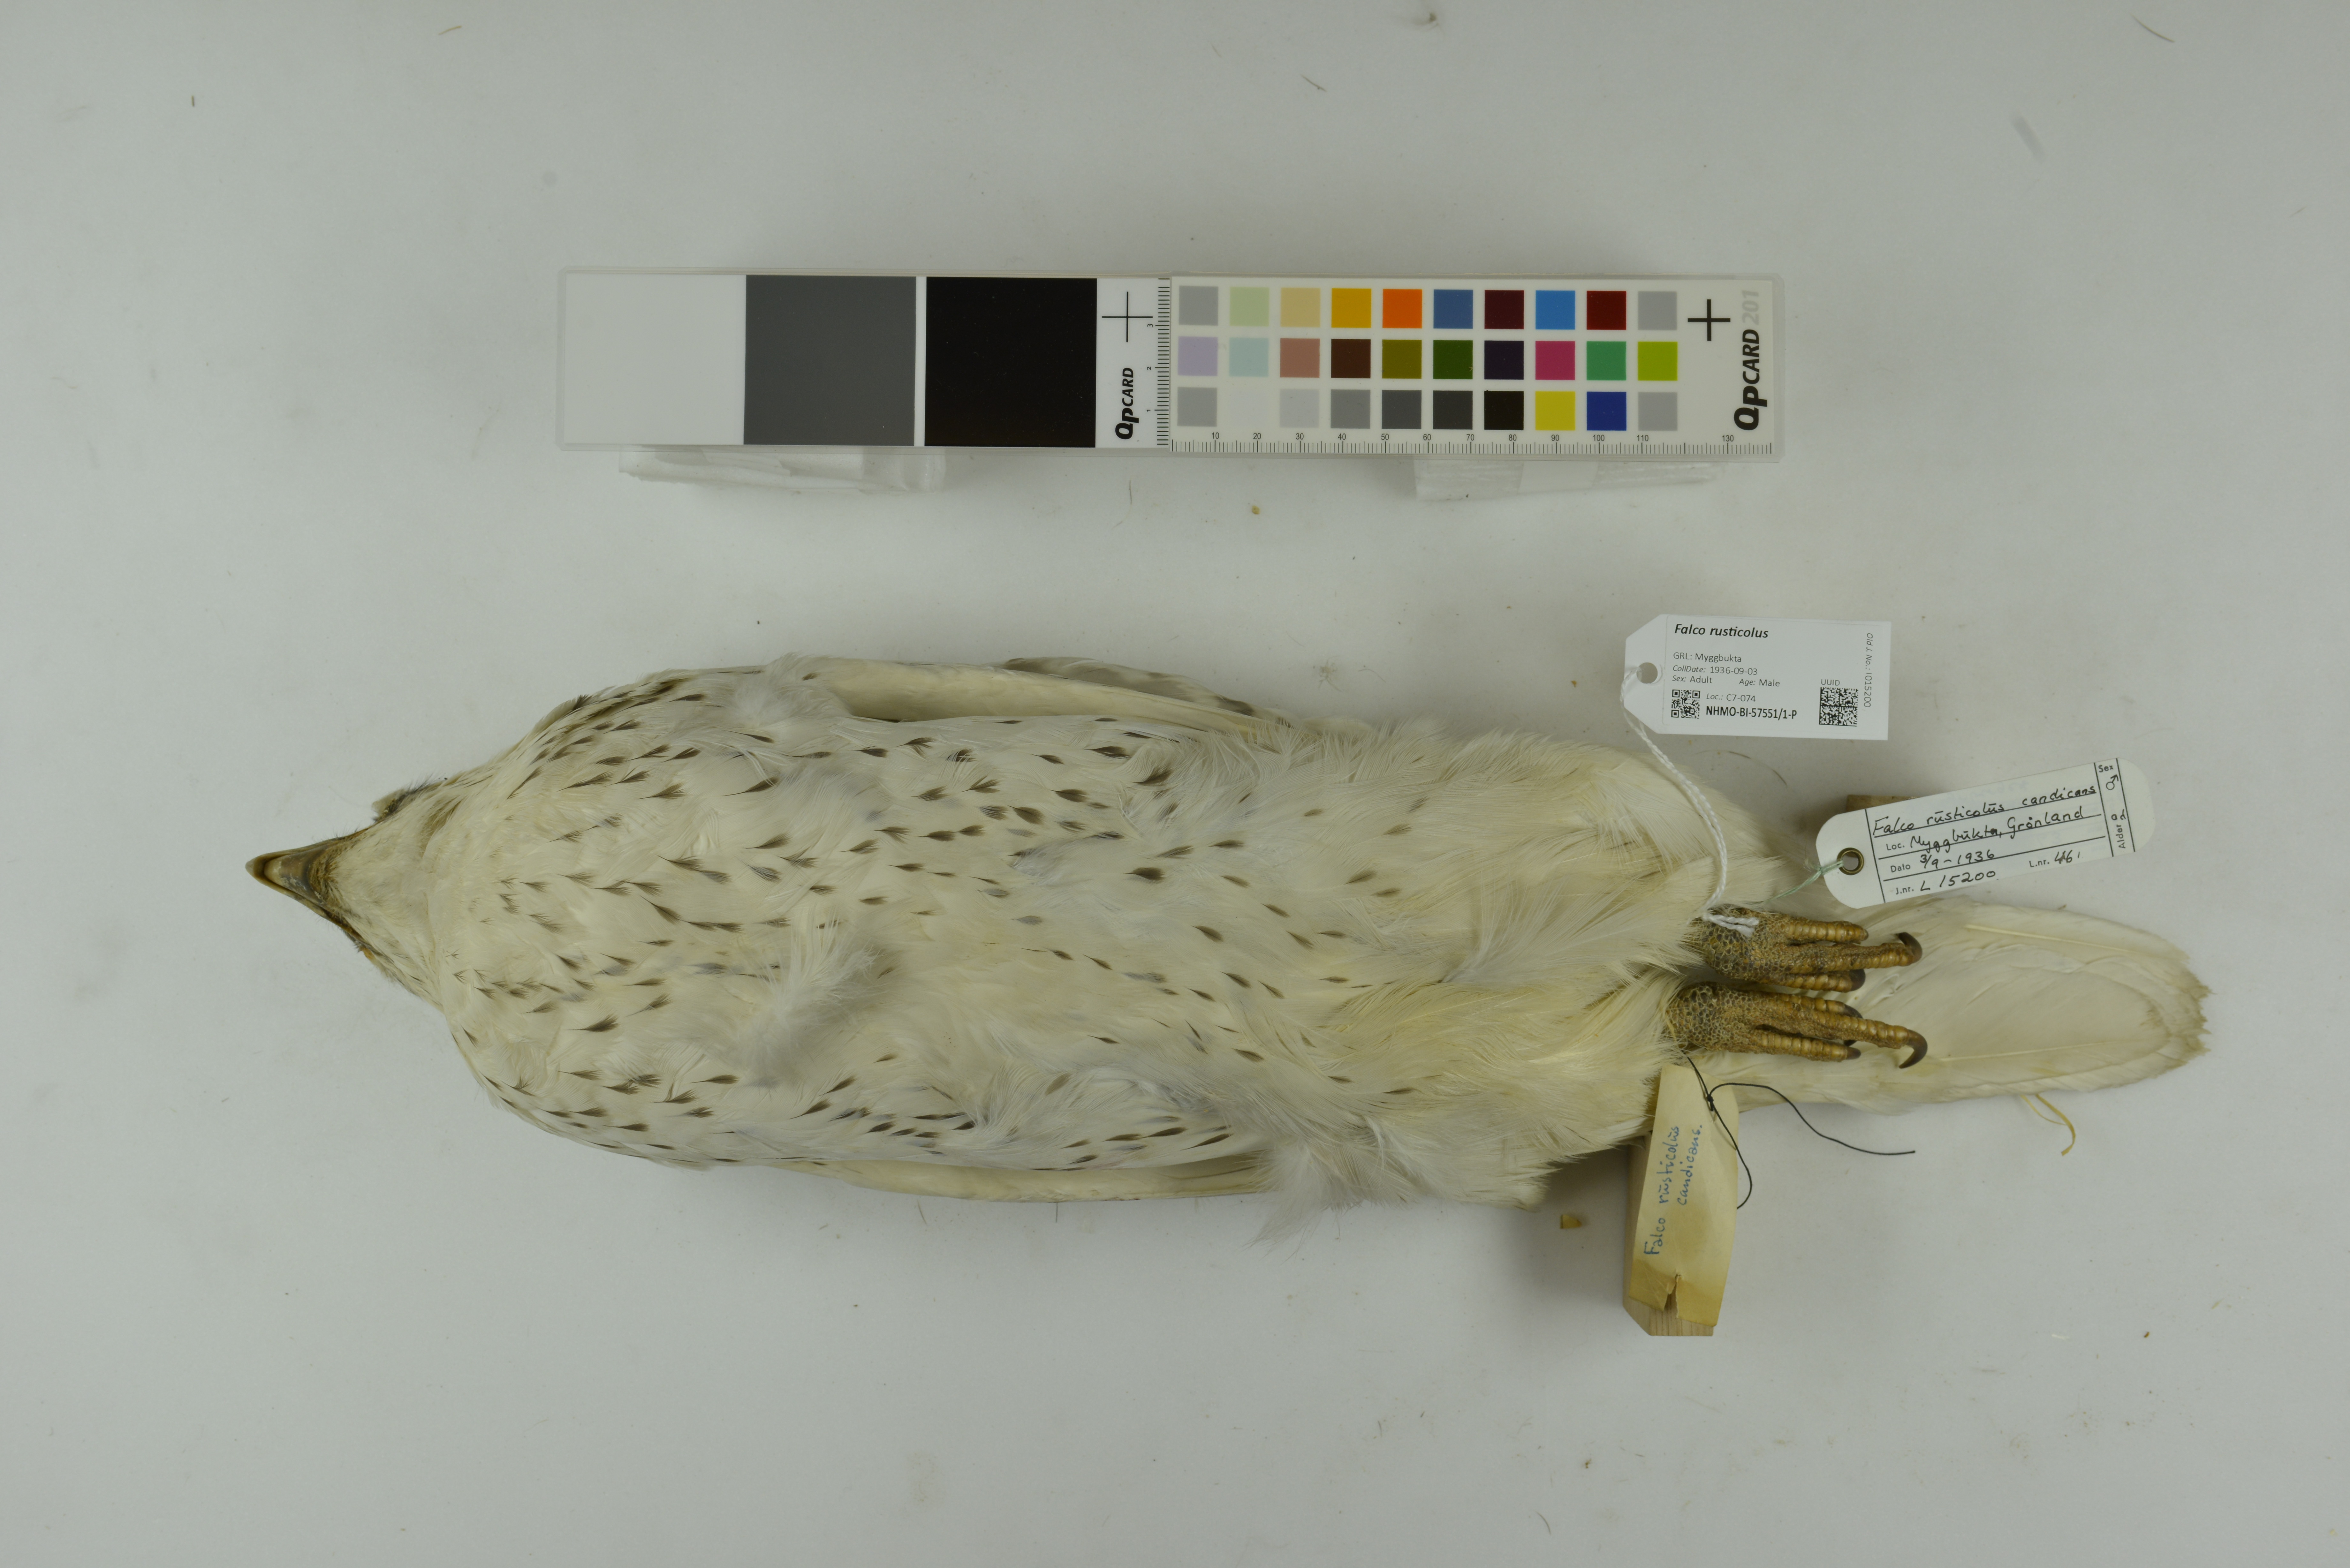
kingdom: Animalia
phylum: Chordata
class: Aves
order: Falconiformes
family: Falconidae
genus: Falco
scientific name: Falco rusticolus
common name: Gyrfalcon
